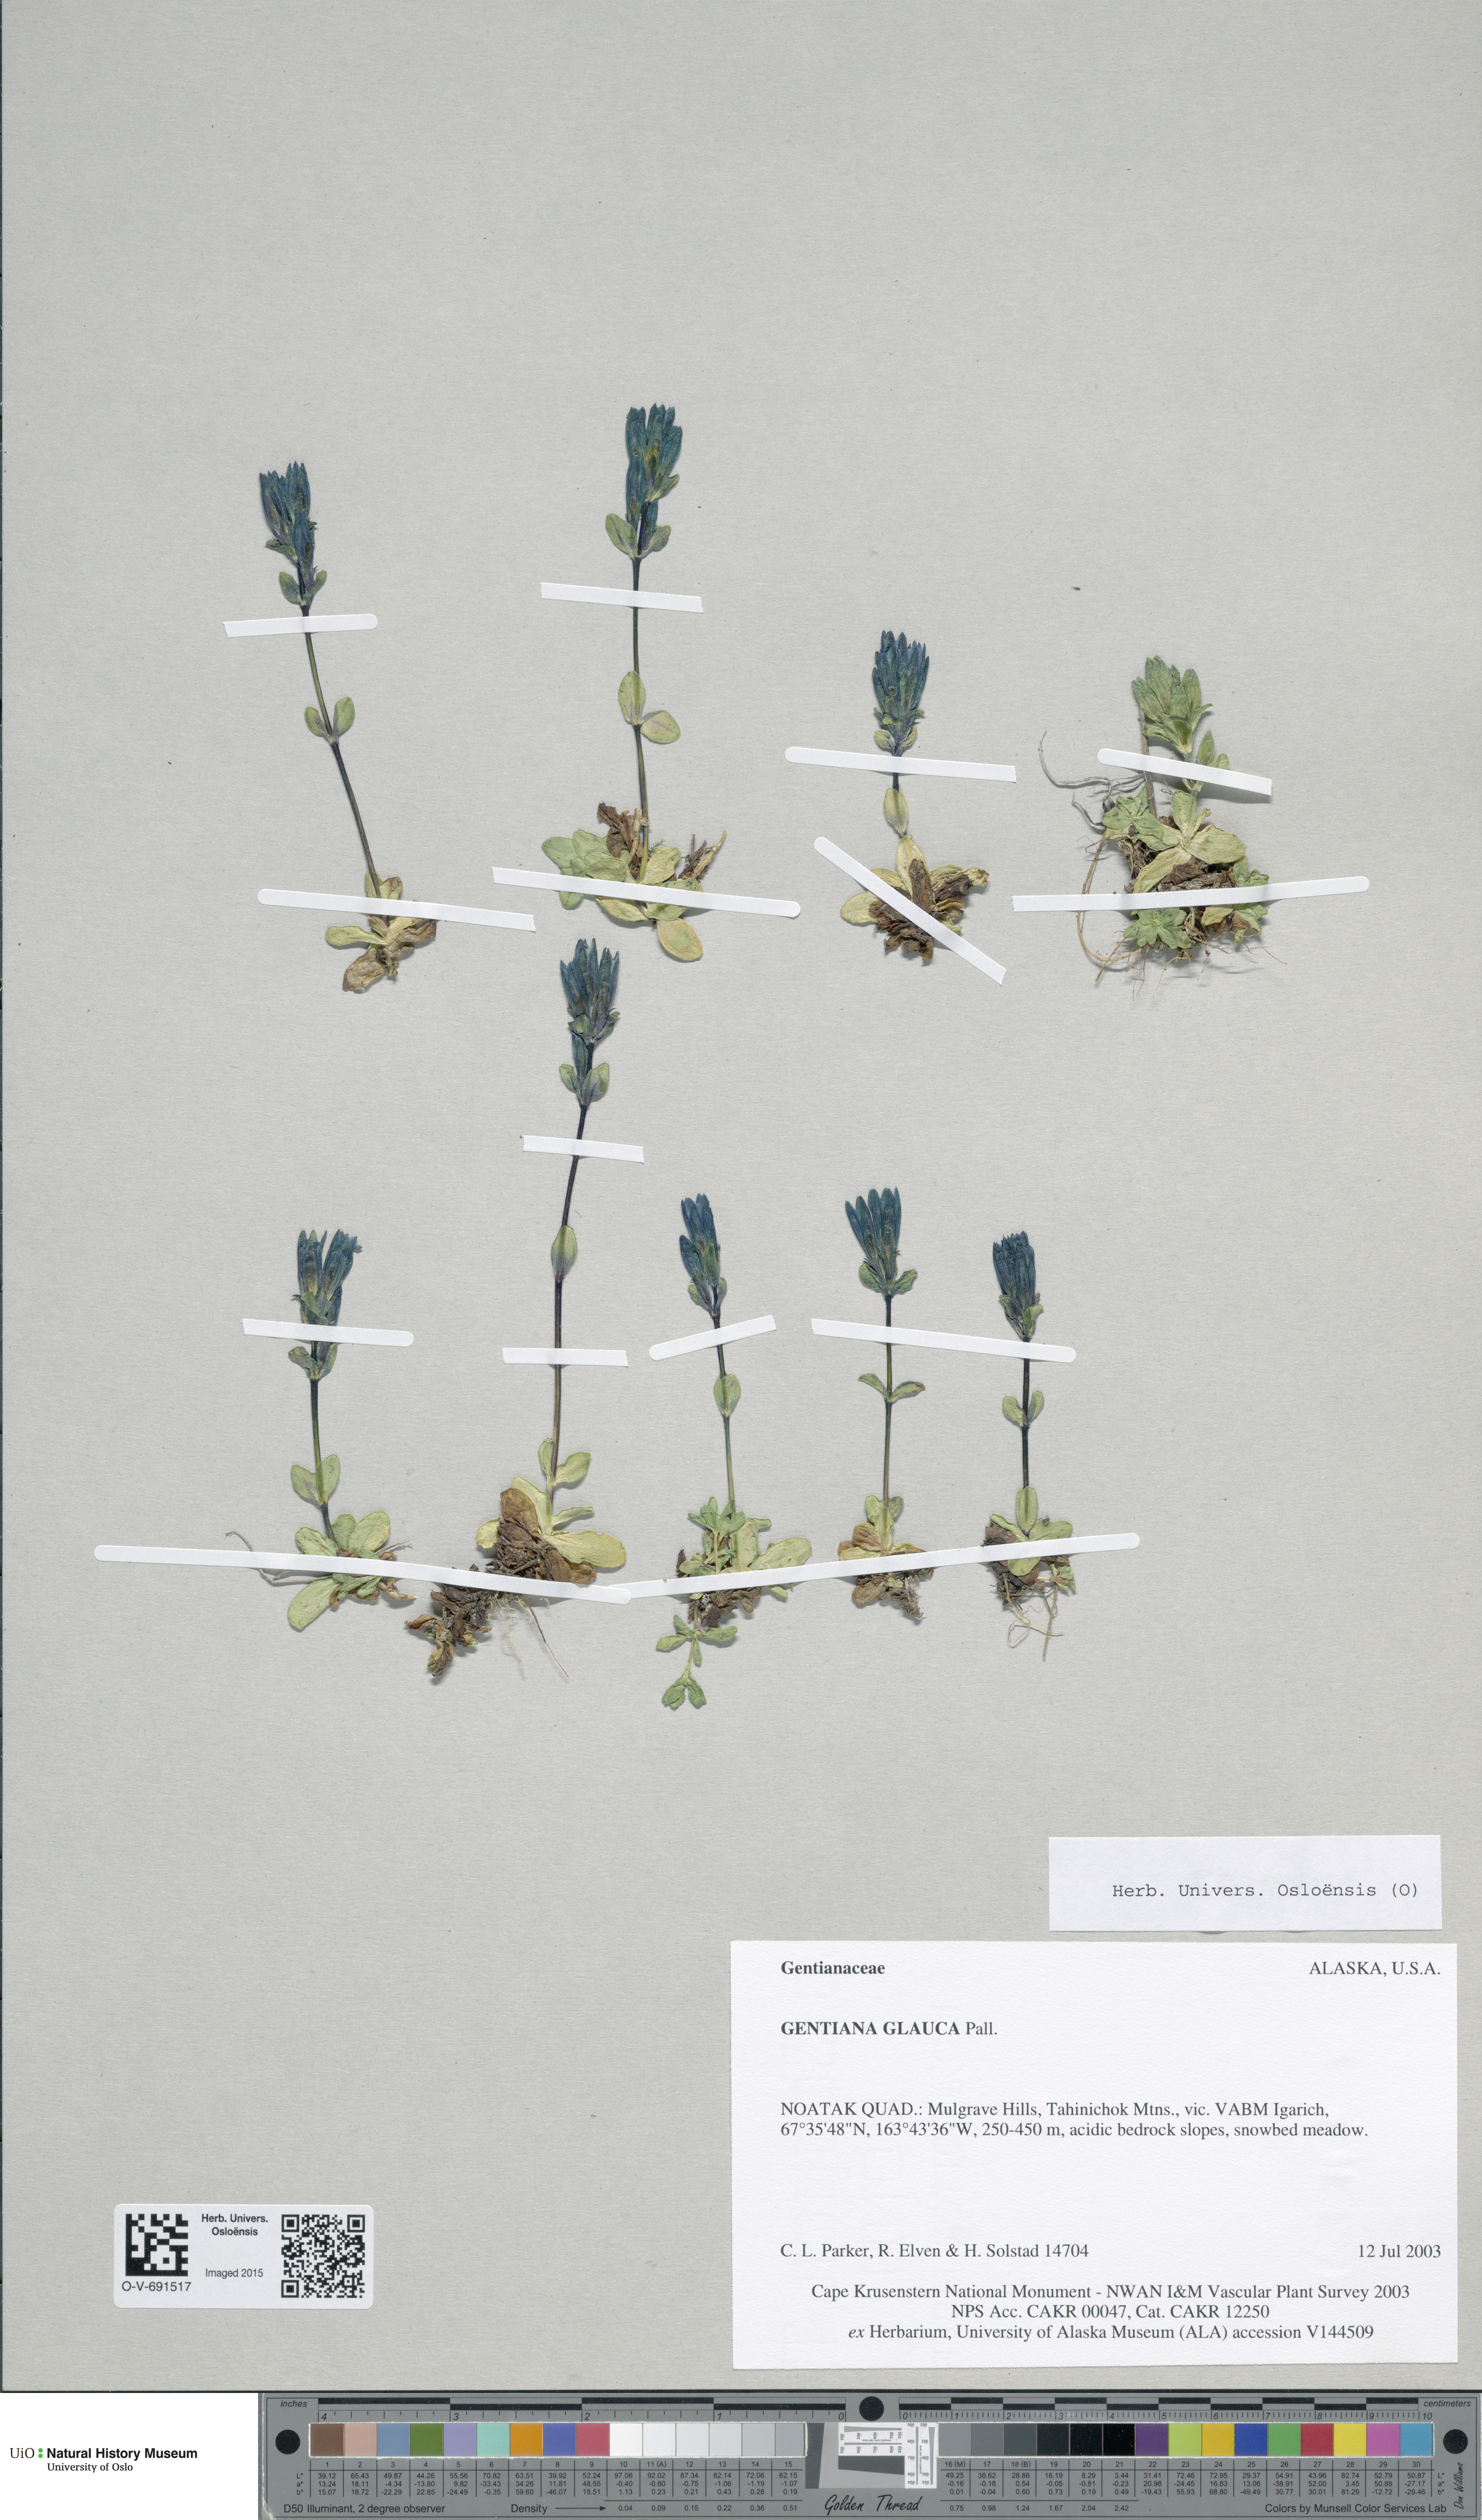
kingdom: Plantae
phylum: Tracheophyta
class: Magnoliopsida
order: Gentianales
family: Gentianaceae
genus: Gentiana
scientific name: Gentiana glauca
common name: Alpine gentian
